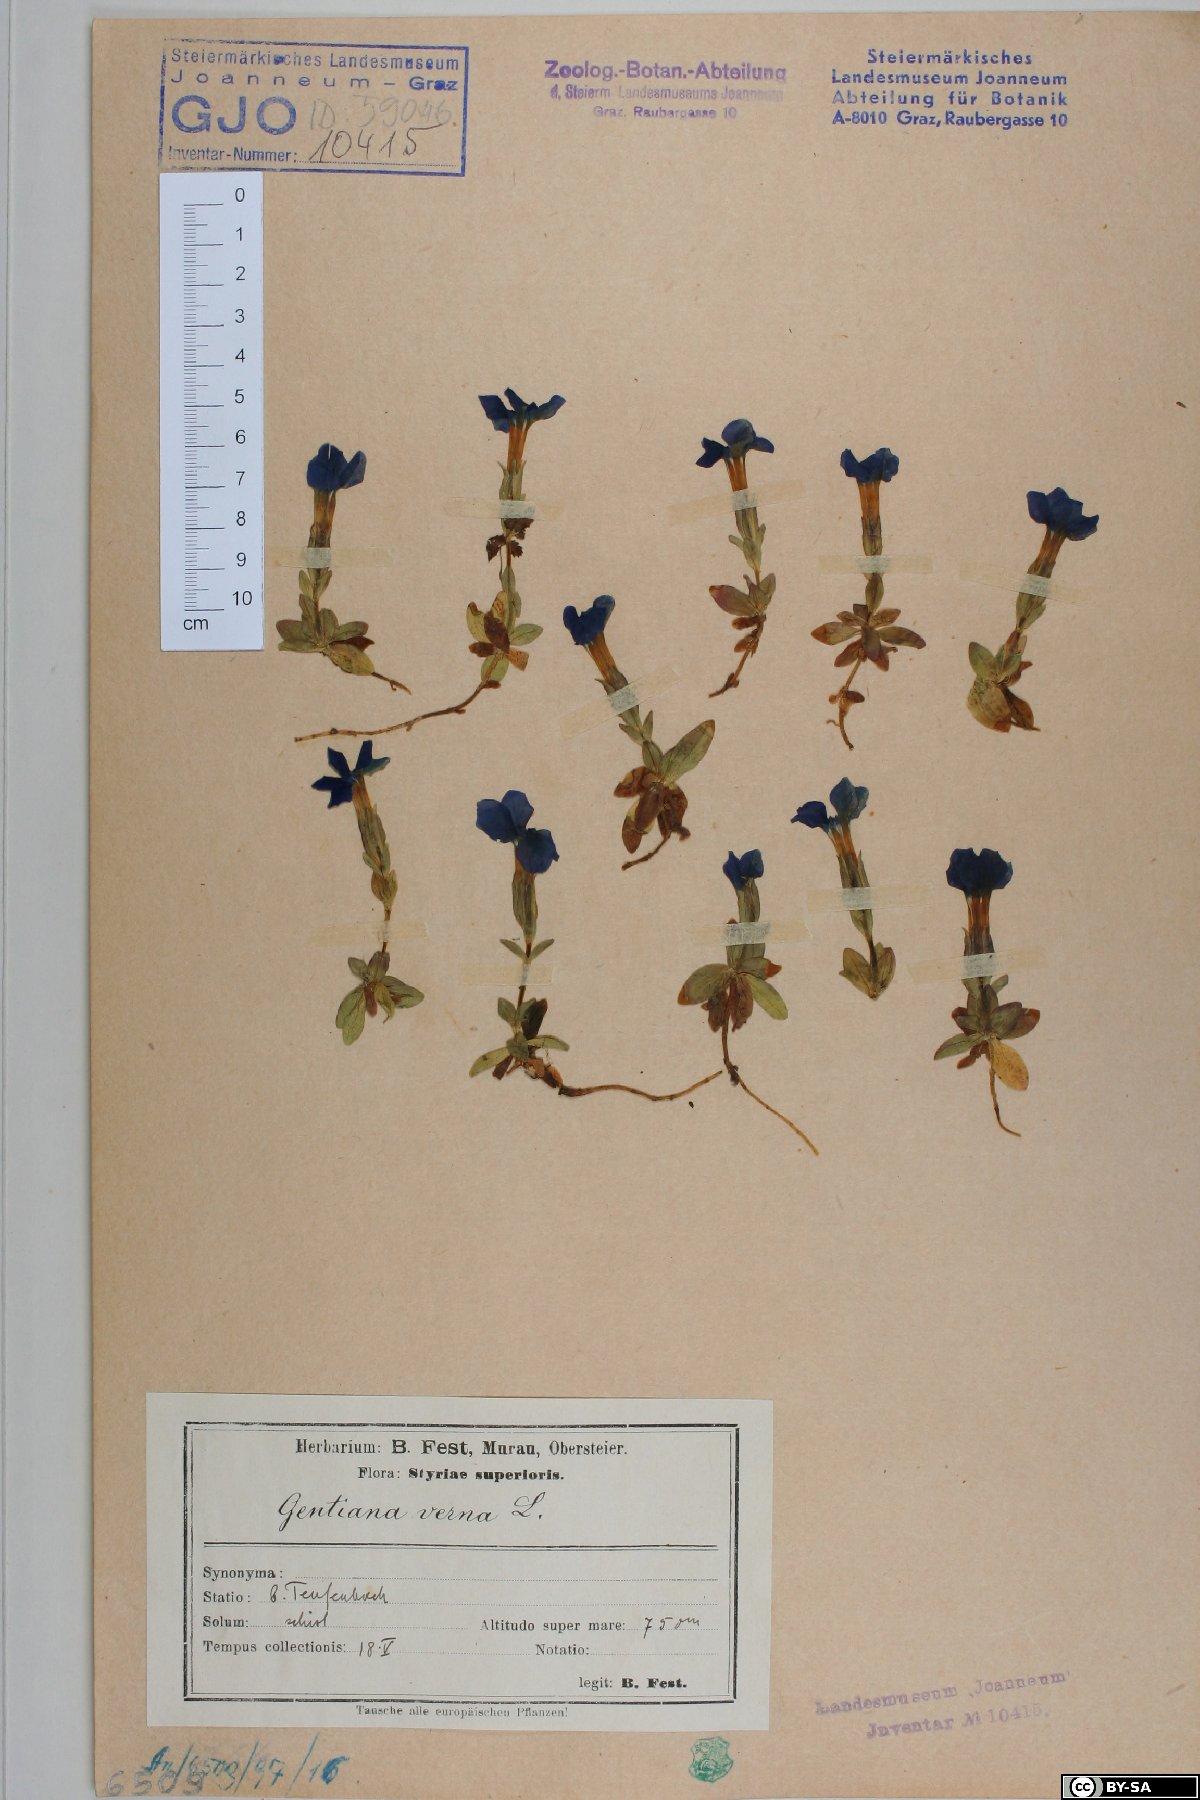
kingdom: Plantae
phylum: Tracheophyta
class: Magnoliopsida
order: Gentianales
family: Gentianaceae
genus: Gentiana
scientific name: Gentiana verna
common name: Spring gentian
